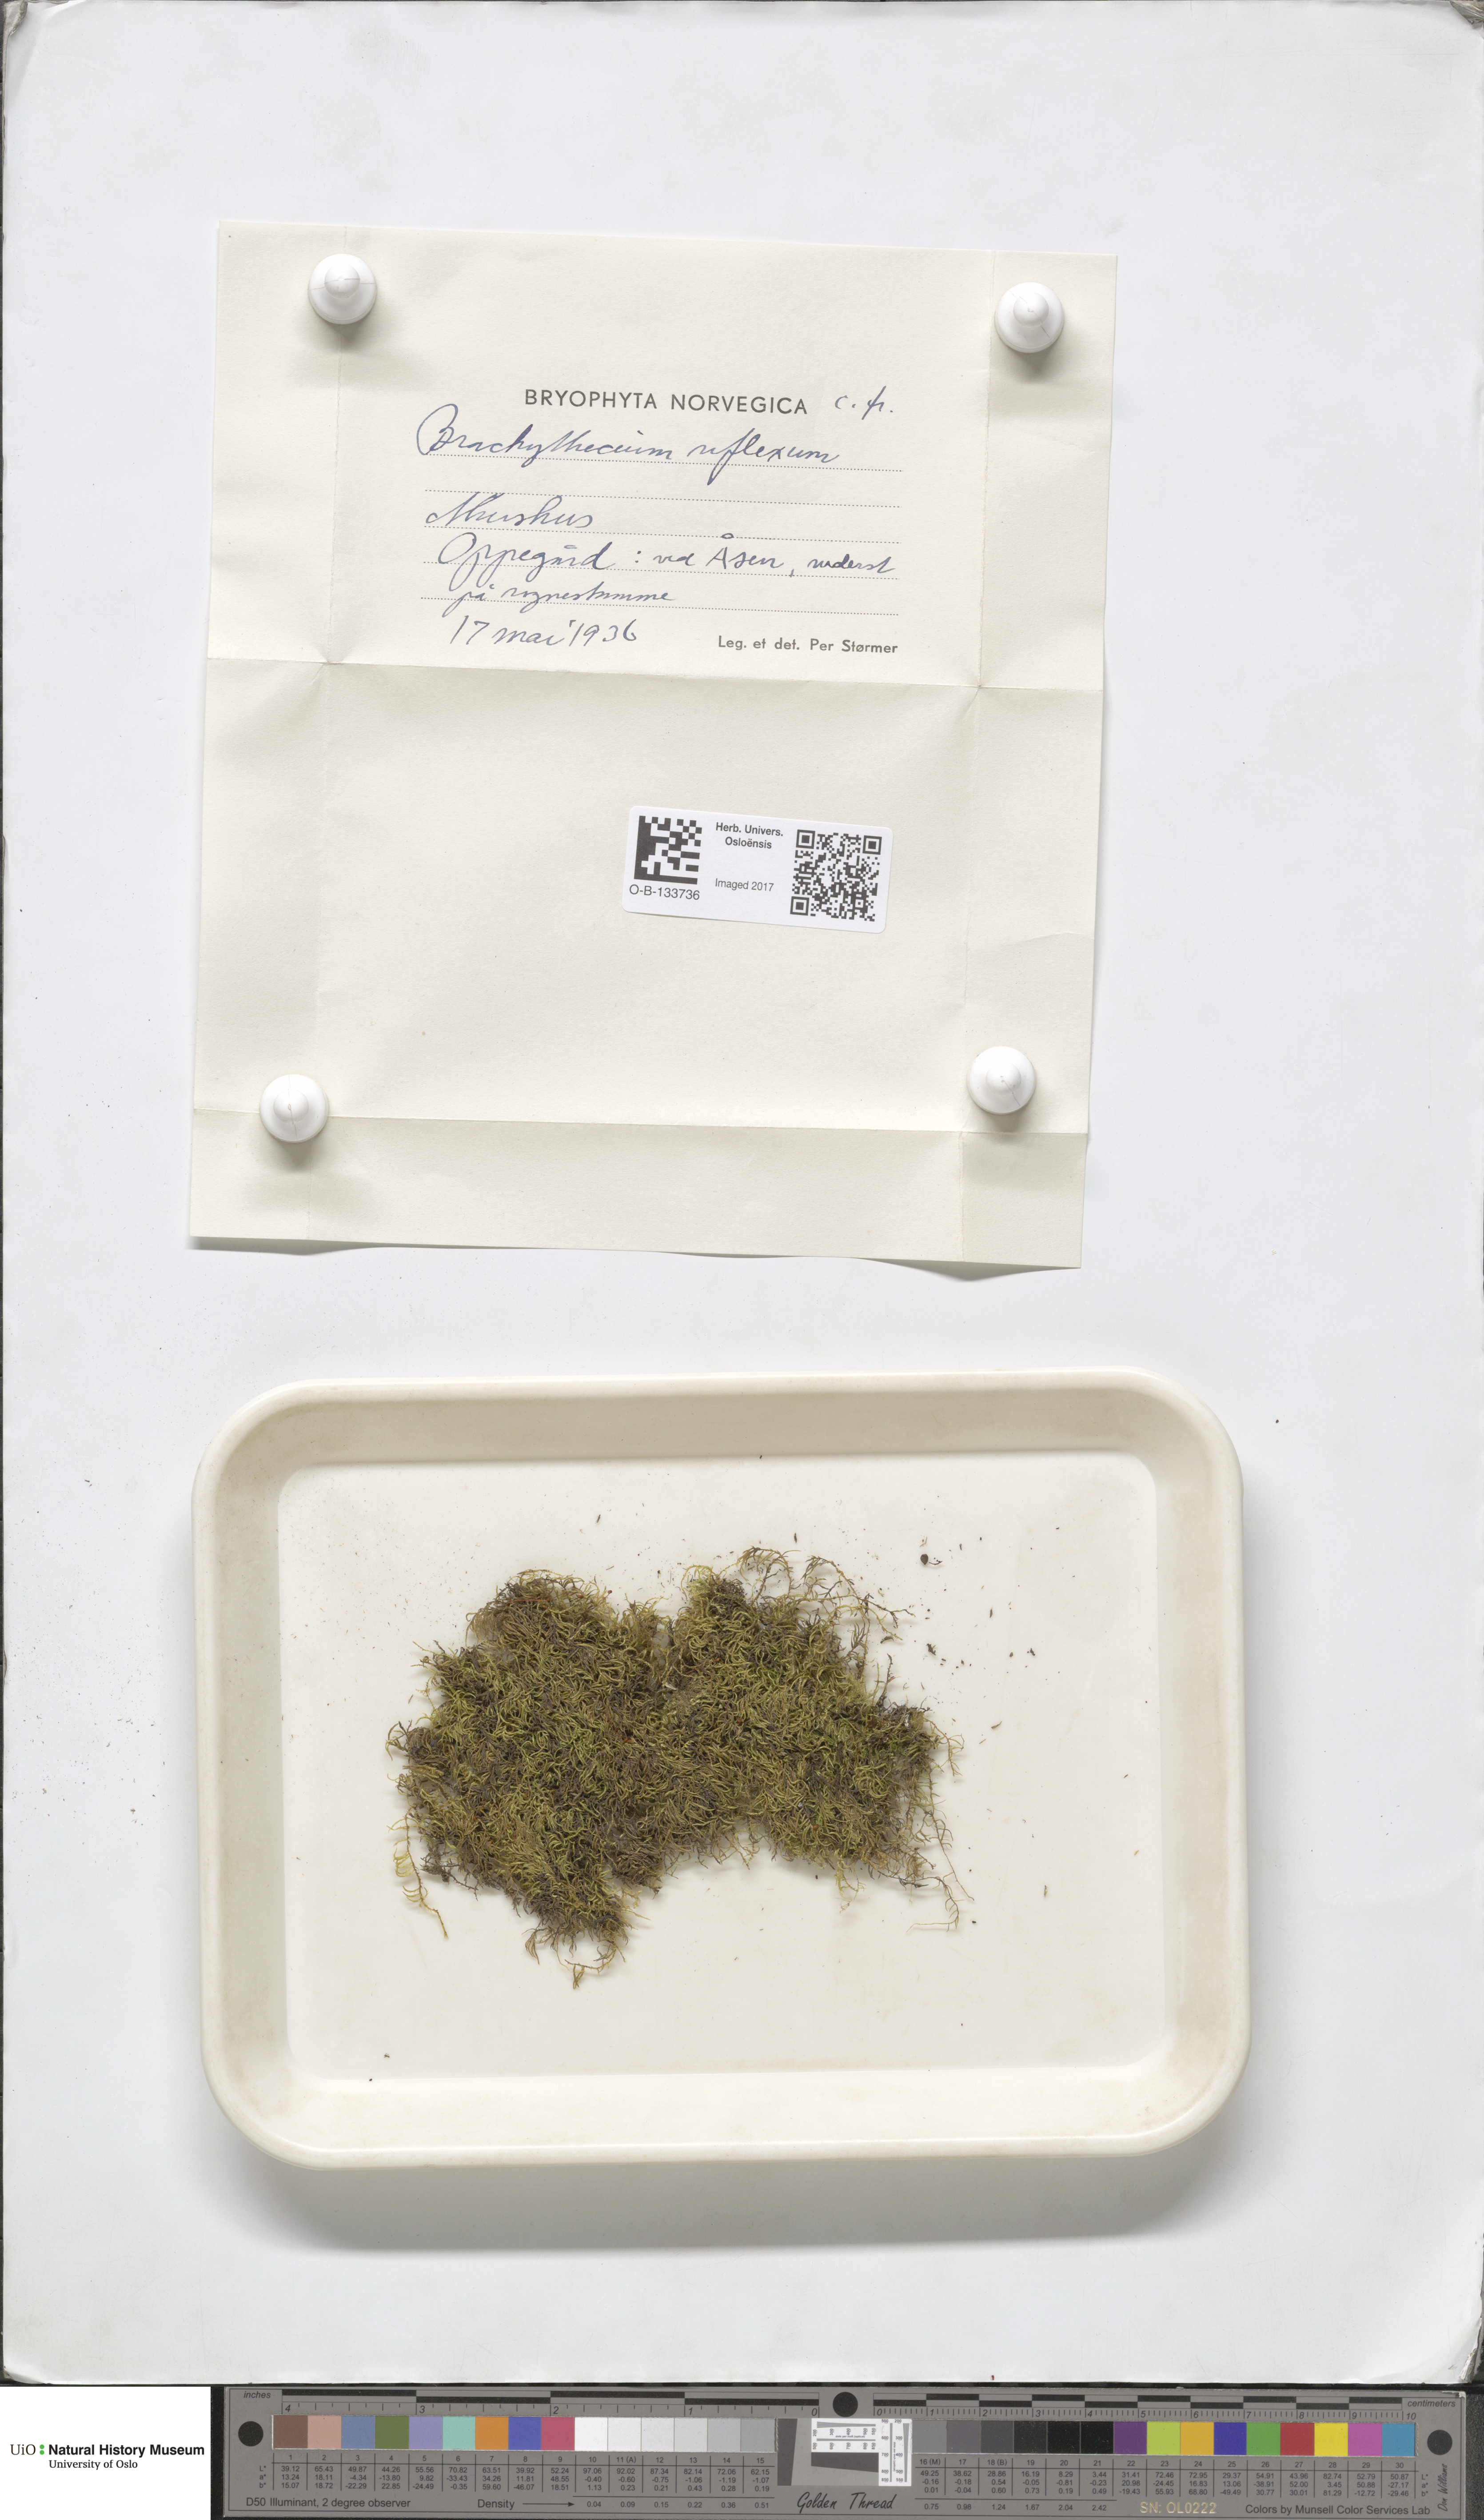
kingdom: Plantae
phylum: Bryophyta
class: Bryopsida
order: Hypnales
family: Brachytheciaceae
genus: Sciuro-hypnum
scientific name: Sciuro-hypnum reflexum
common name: Reflexed feather-moss
